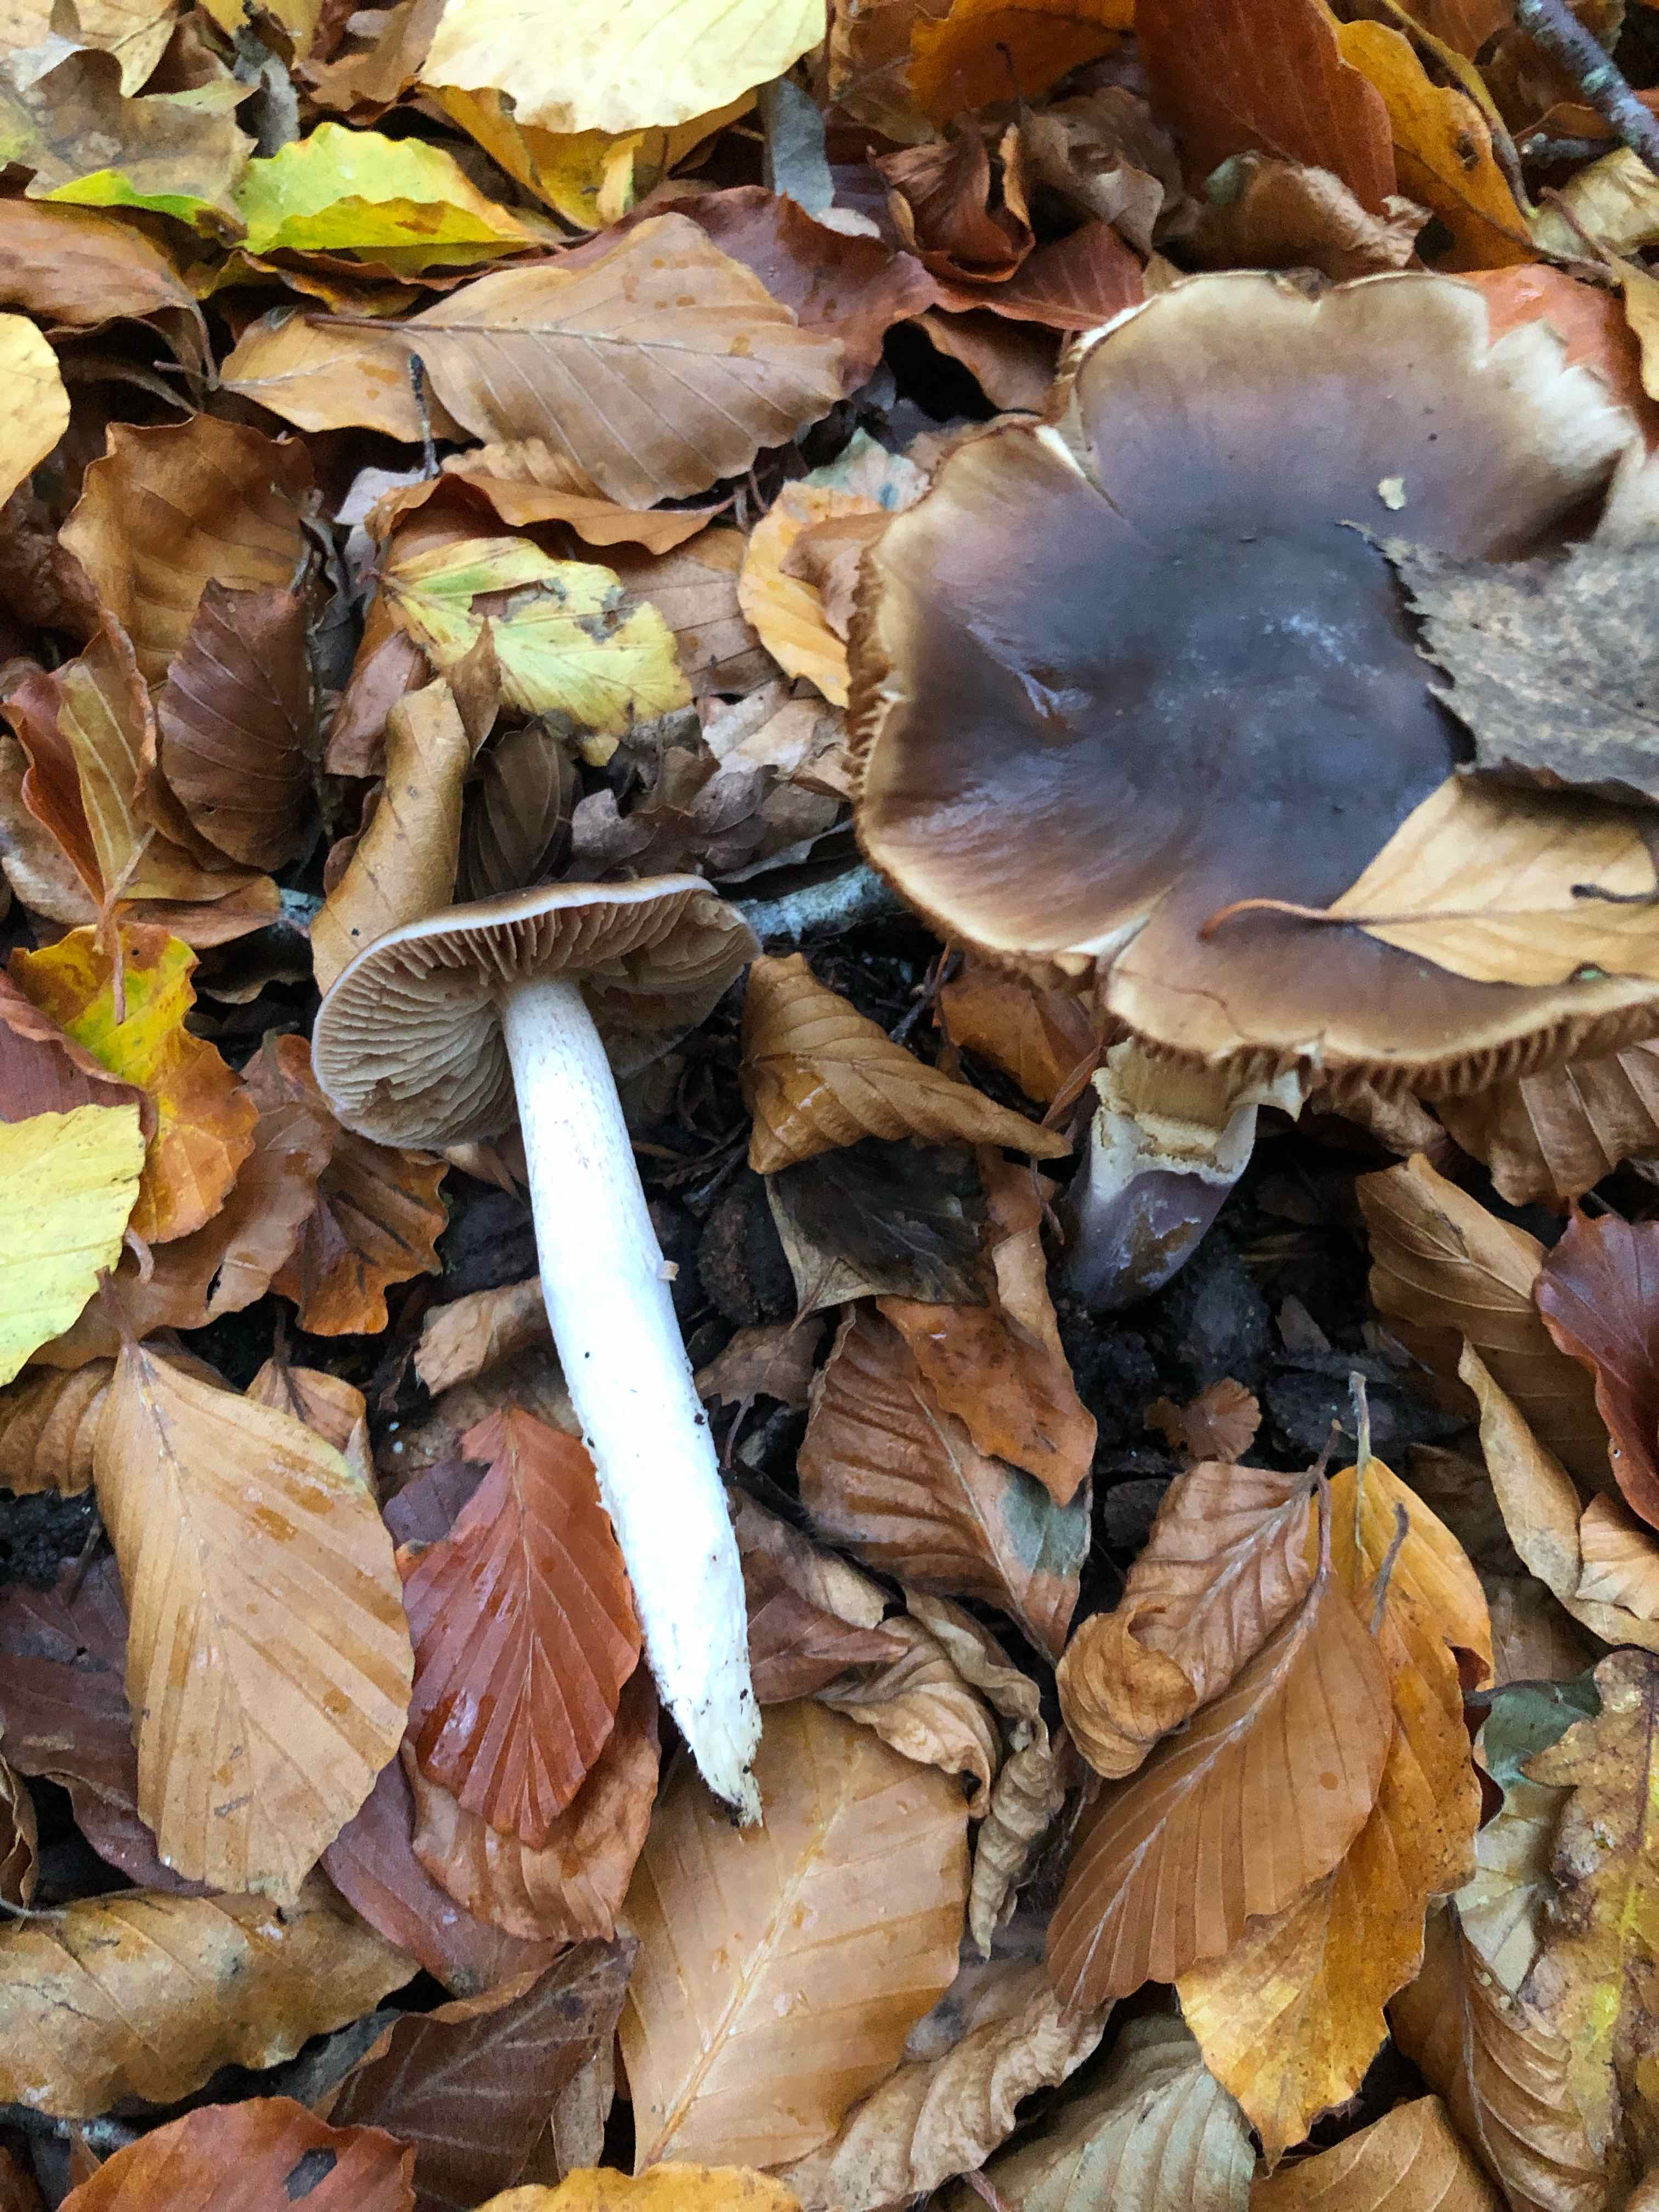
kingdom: Fungi
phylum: Basidiomycota
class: Agaricomycetes
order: Agaricales
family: Cortinariaceae
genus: Cortinarius
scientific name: Cortinarius elatior
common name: høj slørhat
